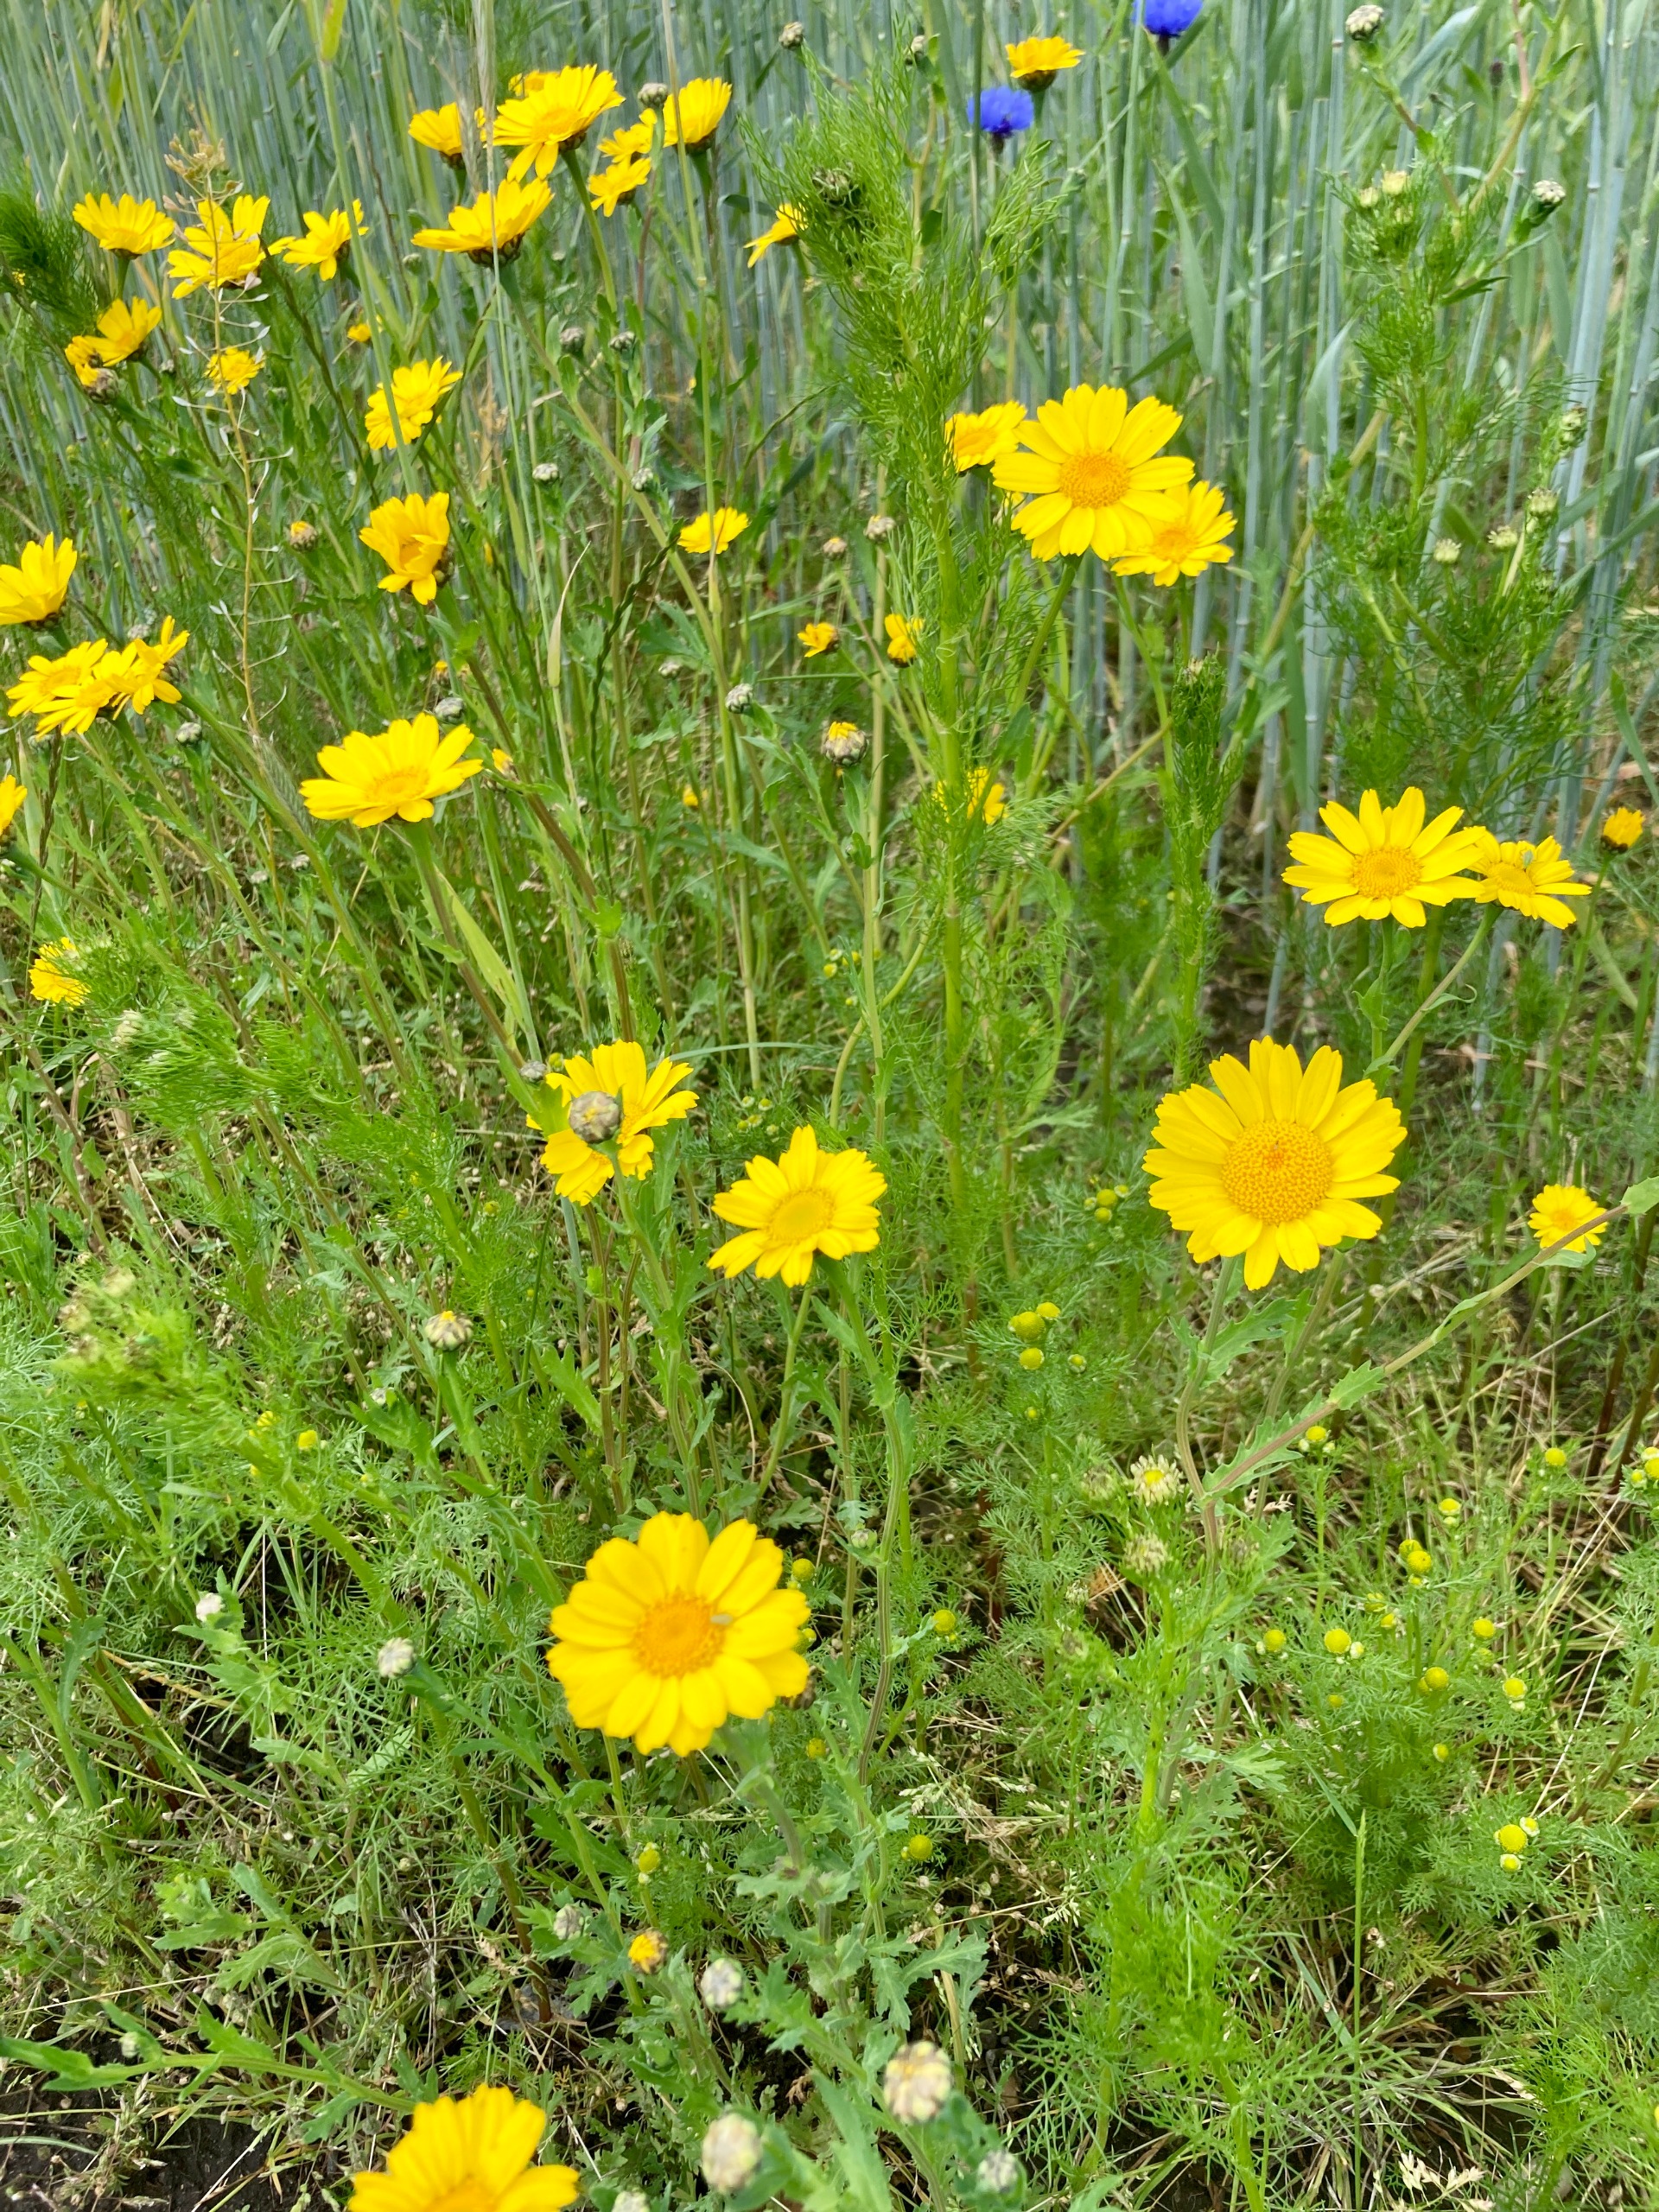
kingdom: Plantae
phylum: Tracheophyta
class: Magnoliopsida
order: Asterales
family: Asteraceae
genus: Glebionis
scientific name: Glebionis segetum
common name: Gul okseøje
